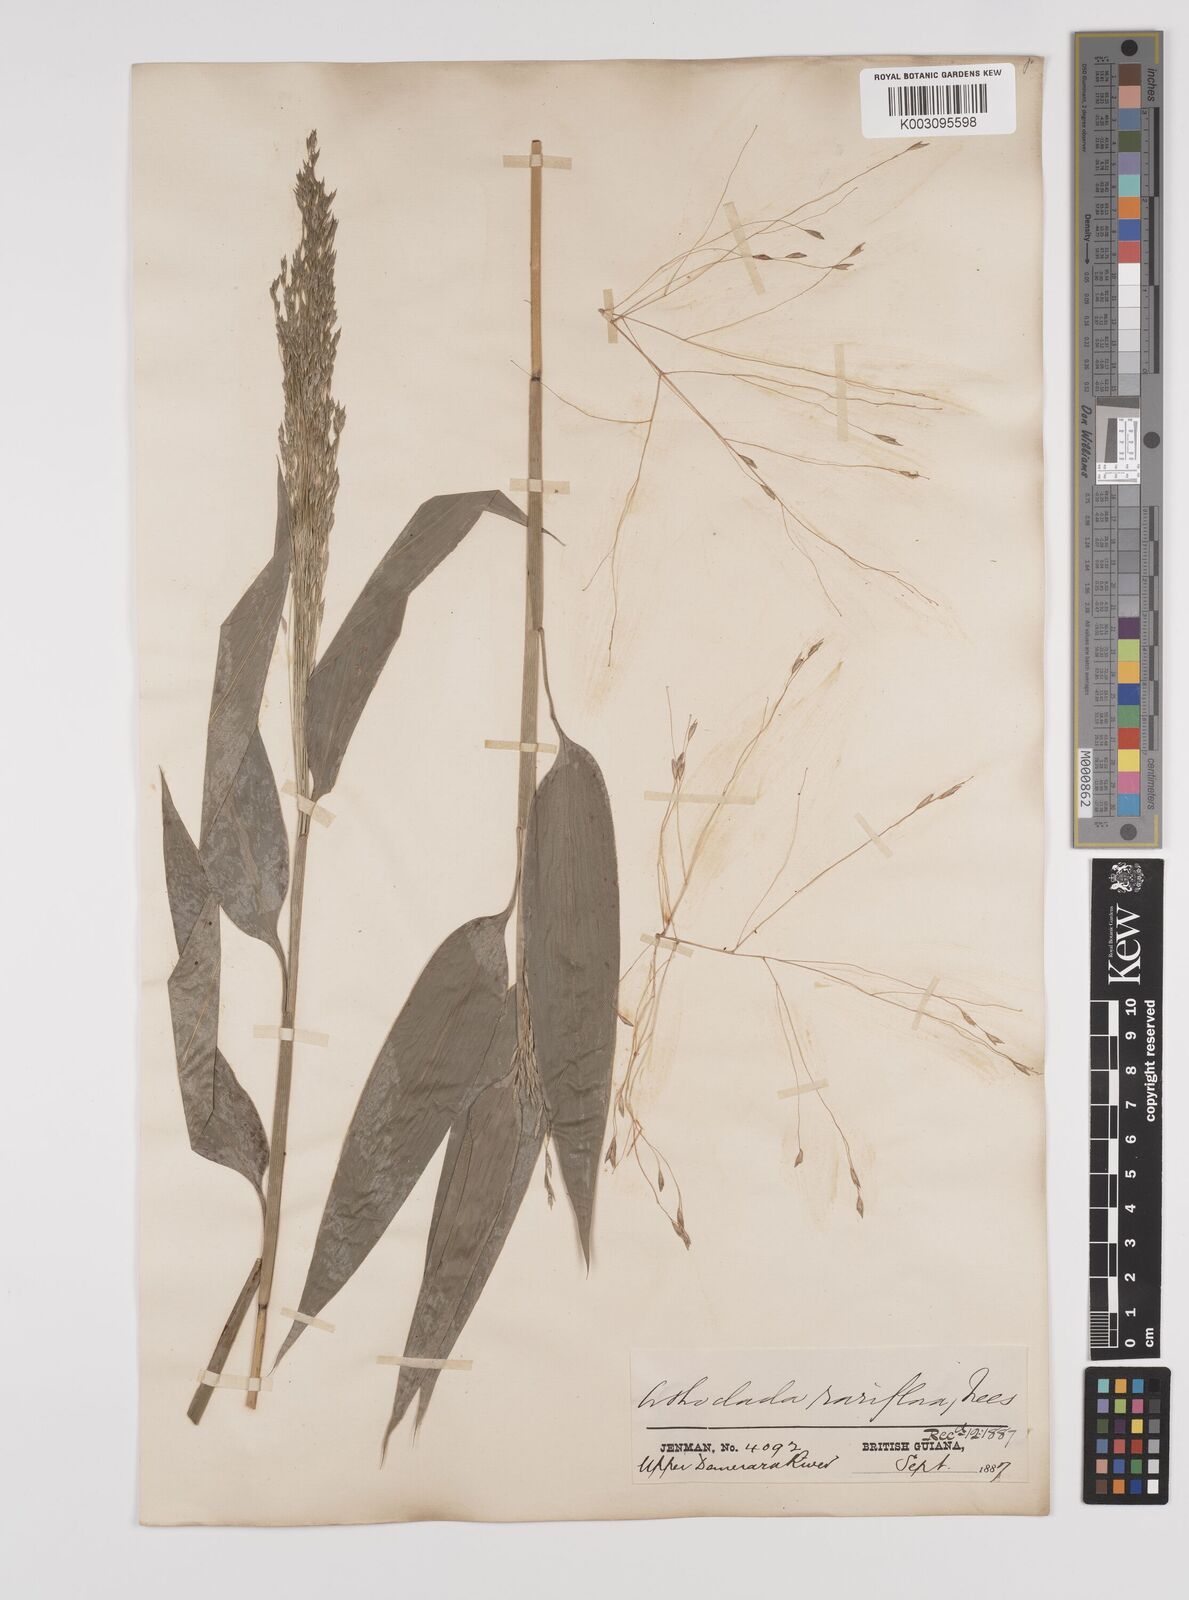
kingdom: Plantae
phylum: Tracheophyta
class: Liliopsida
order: Poales
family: Poaceae
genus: Orthoclada
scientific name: Orthoclada laxa
